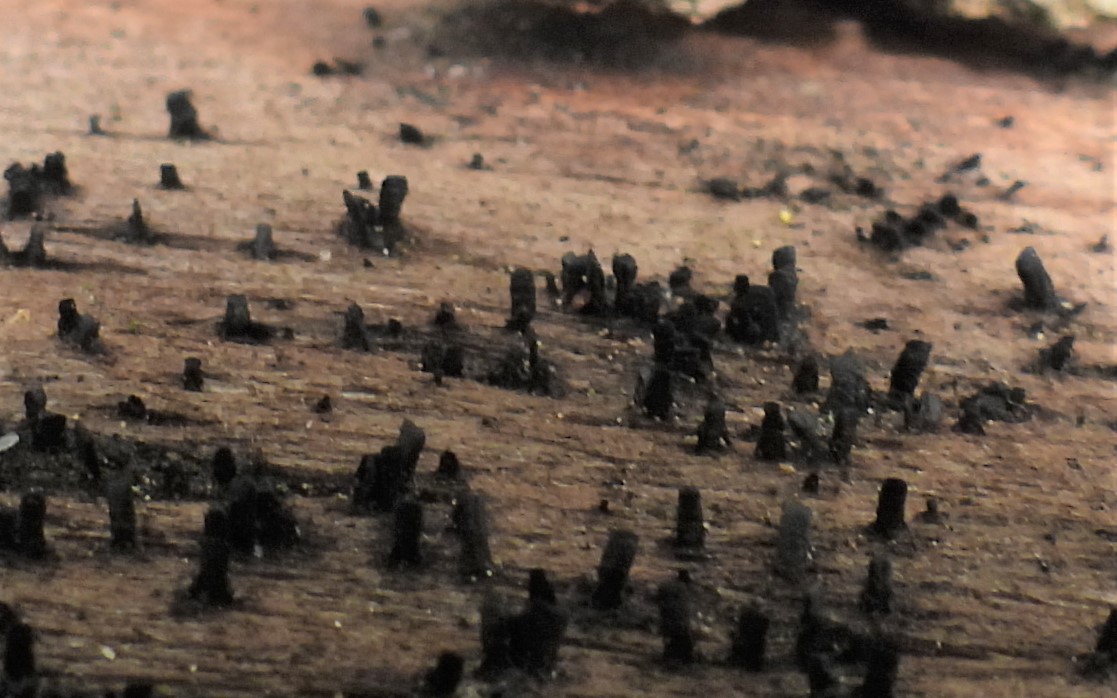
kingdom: Fungi
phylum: Ascomycota
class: Eurotiomycetes
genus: Glyphium
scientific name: Glyphium elatum
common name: kuløkse
